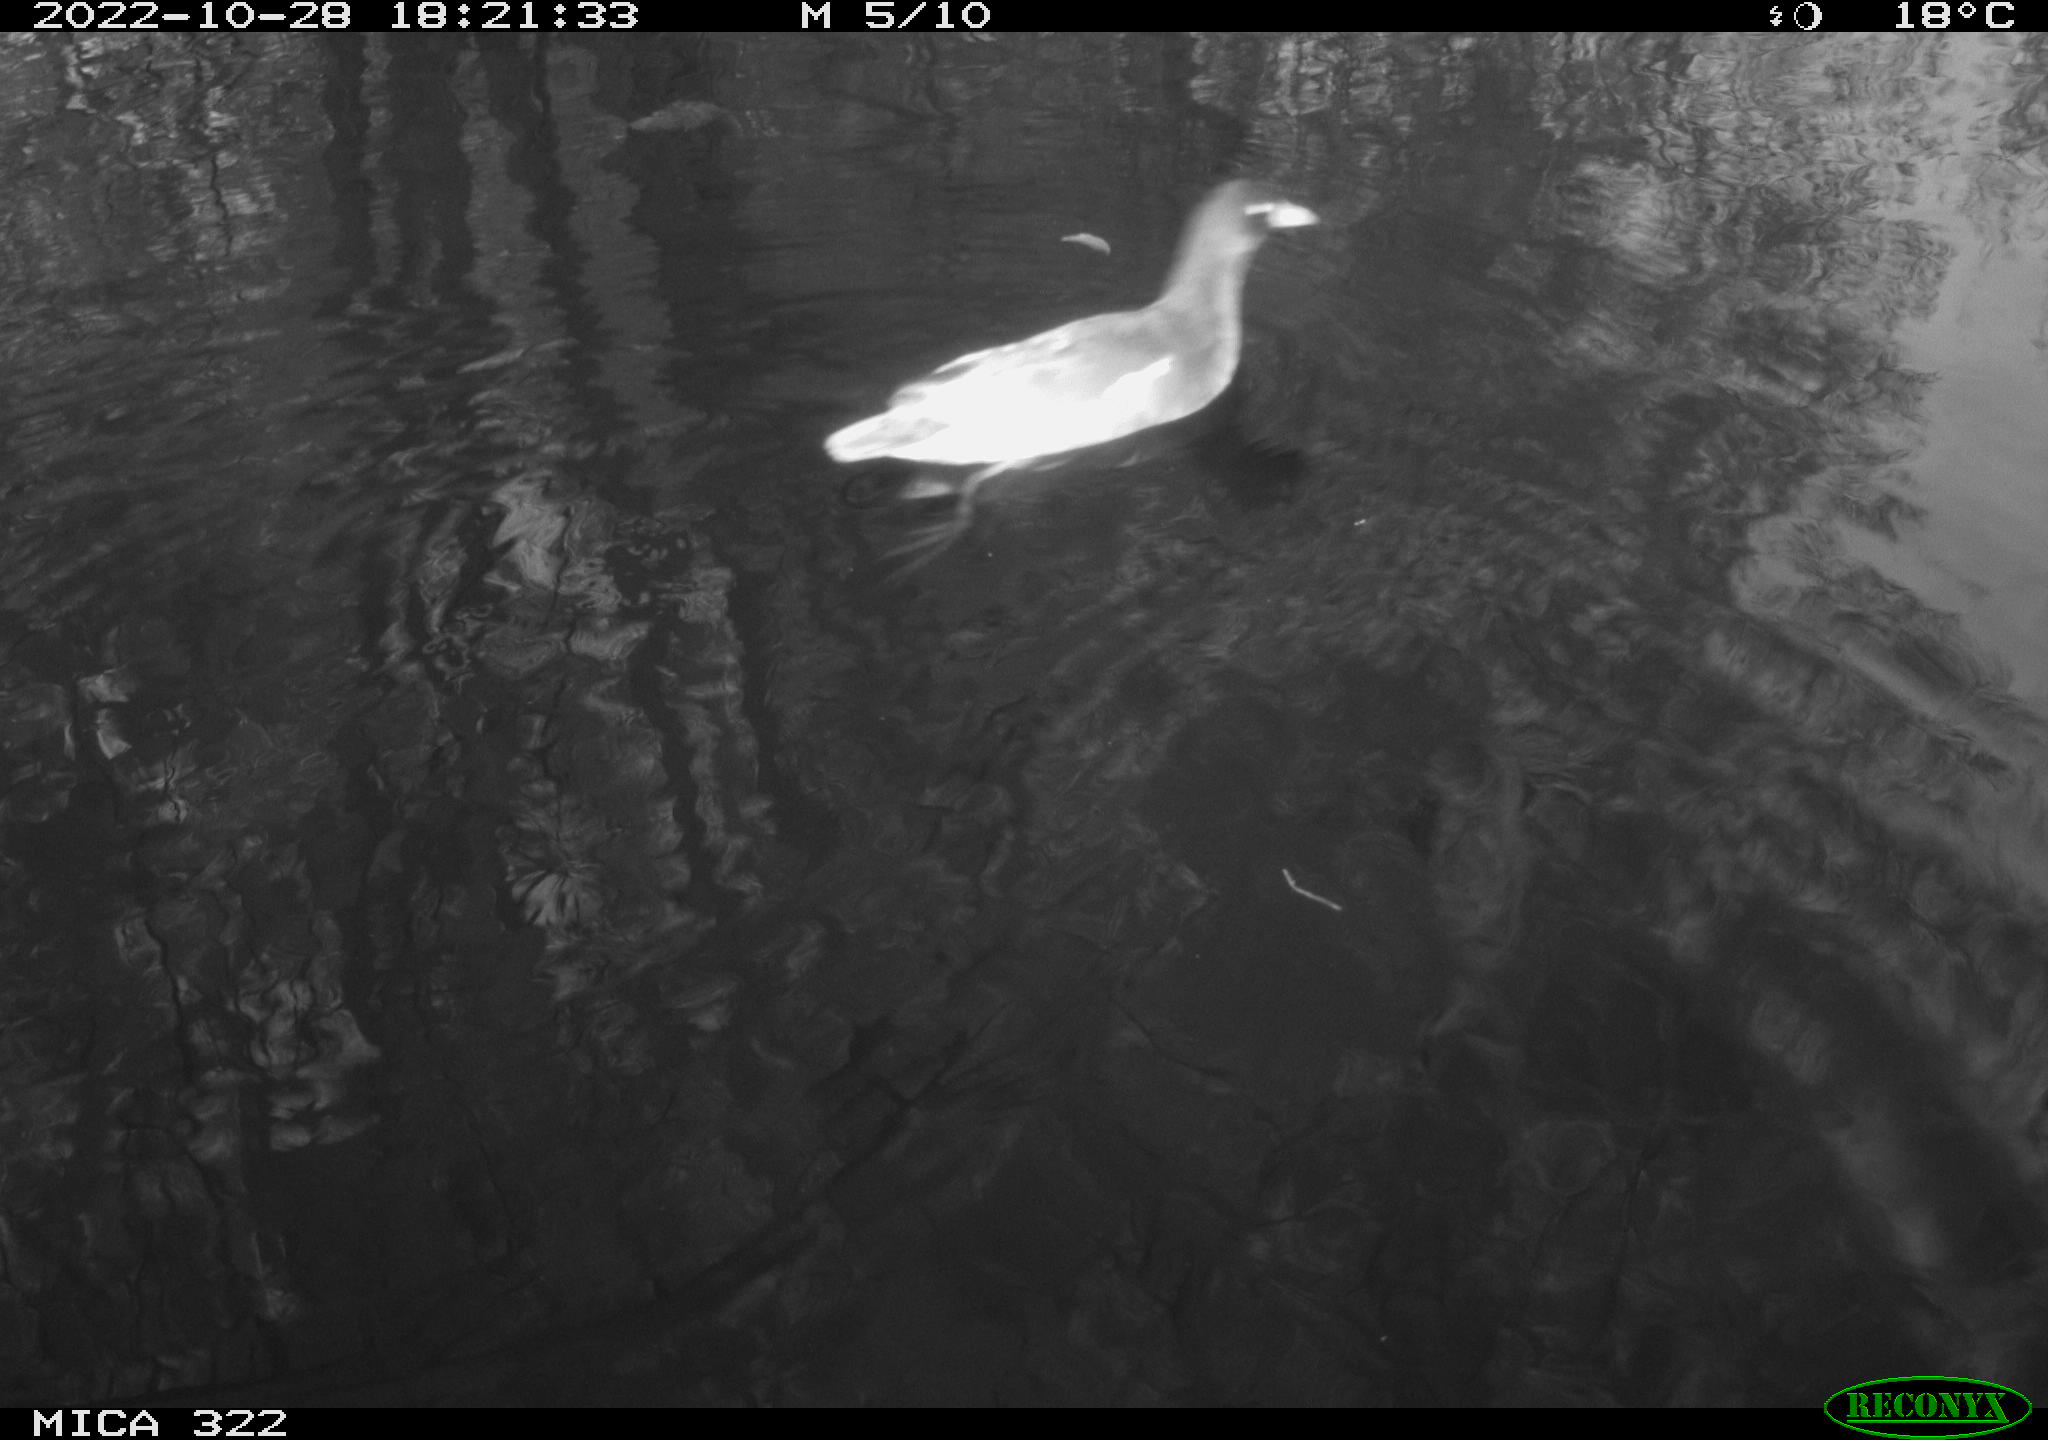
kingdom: Animalia
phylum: Chordata
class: Aves
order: Gruiformes
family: Rallidae
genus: Gallinula
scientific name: Gallinula chloropus
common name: Common moorhen
